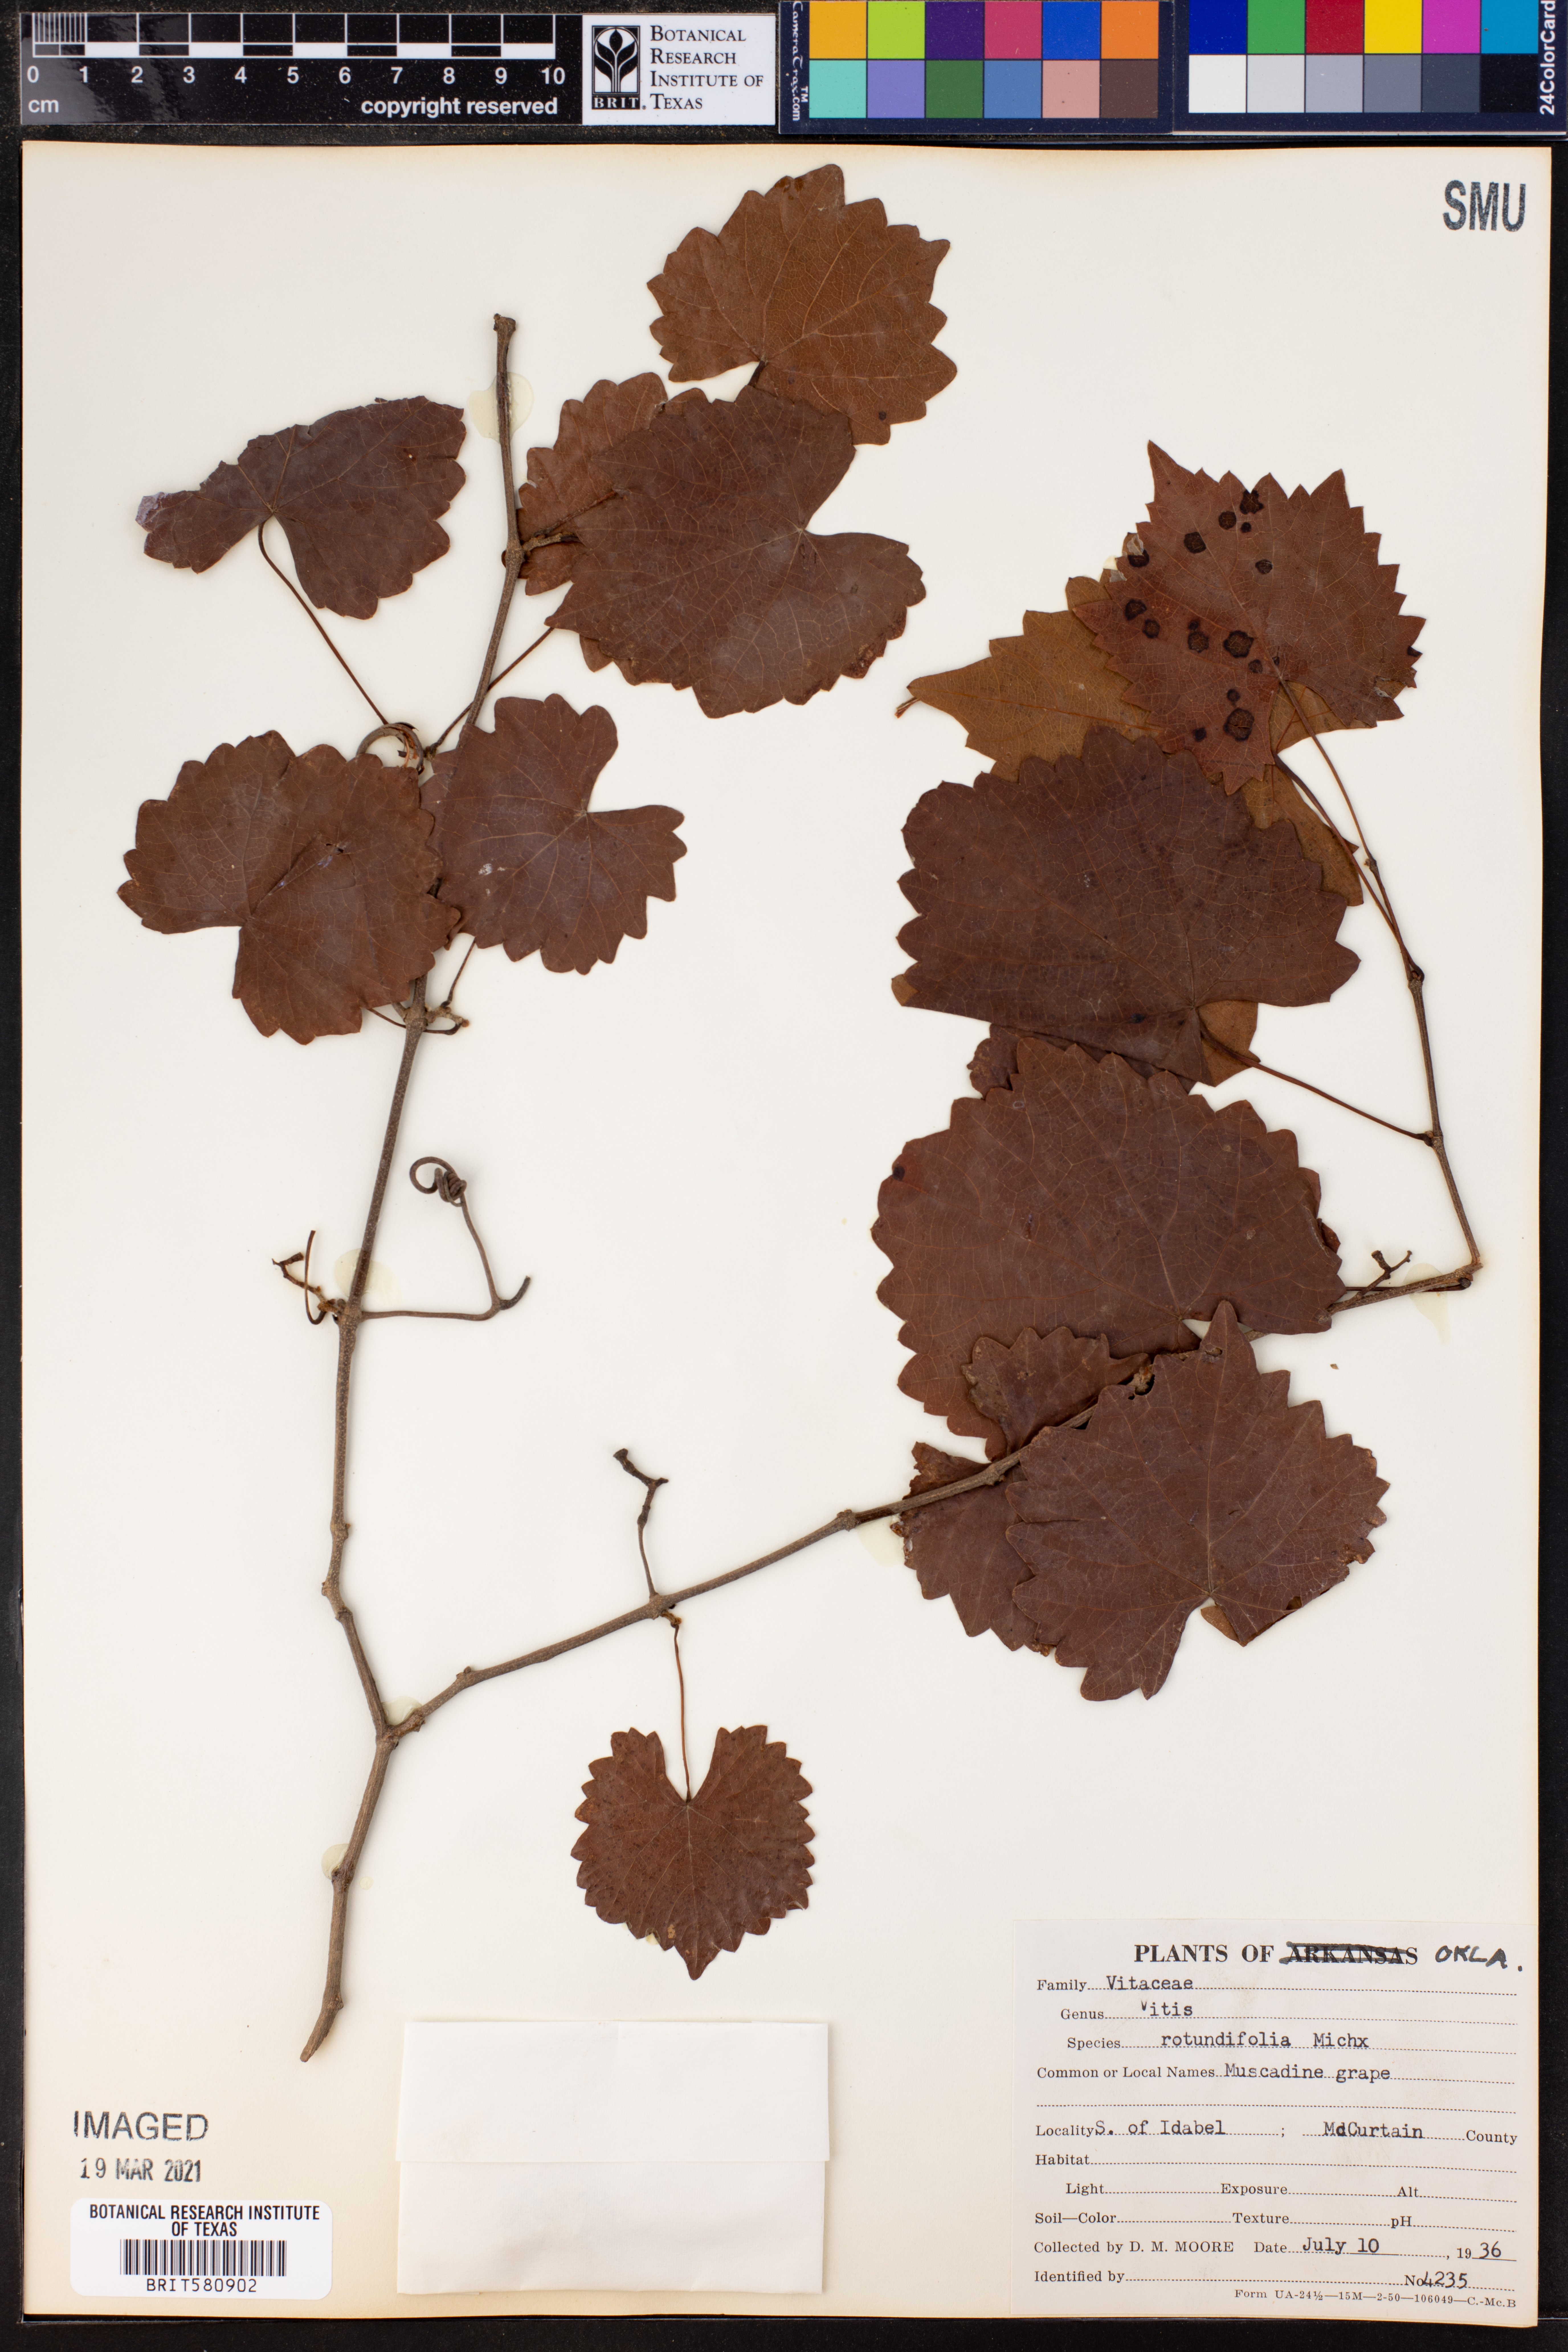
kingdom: Plantae
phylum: Tracheophyta
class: Magnoliopsida
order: Vitales
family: Vitaceae
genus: Vitis
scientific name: Vitis rotundifolia
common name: Muscadine grape
